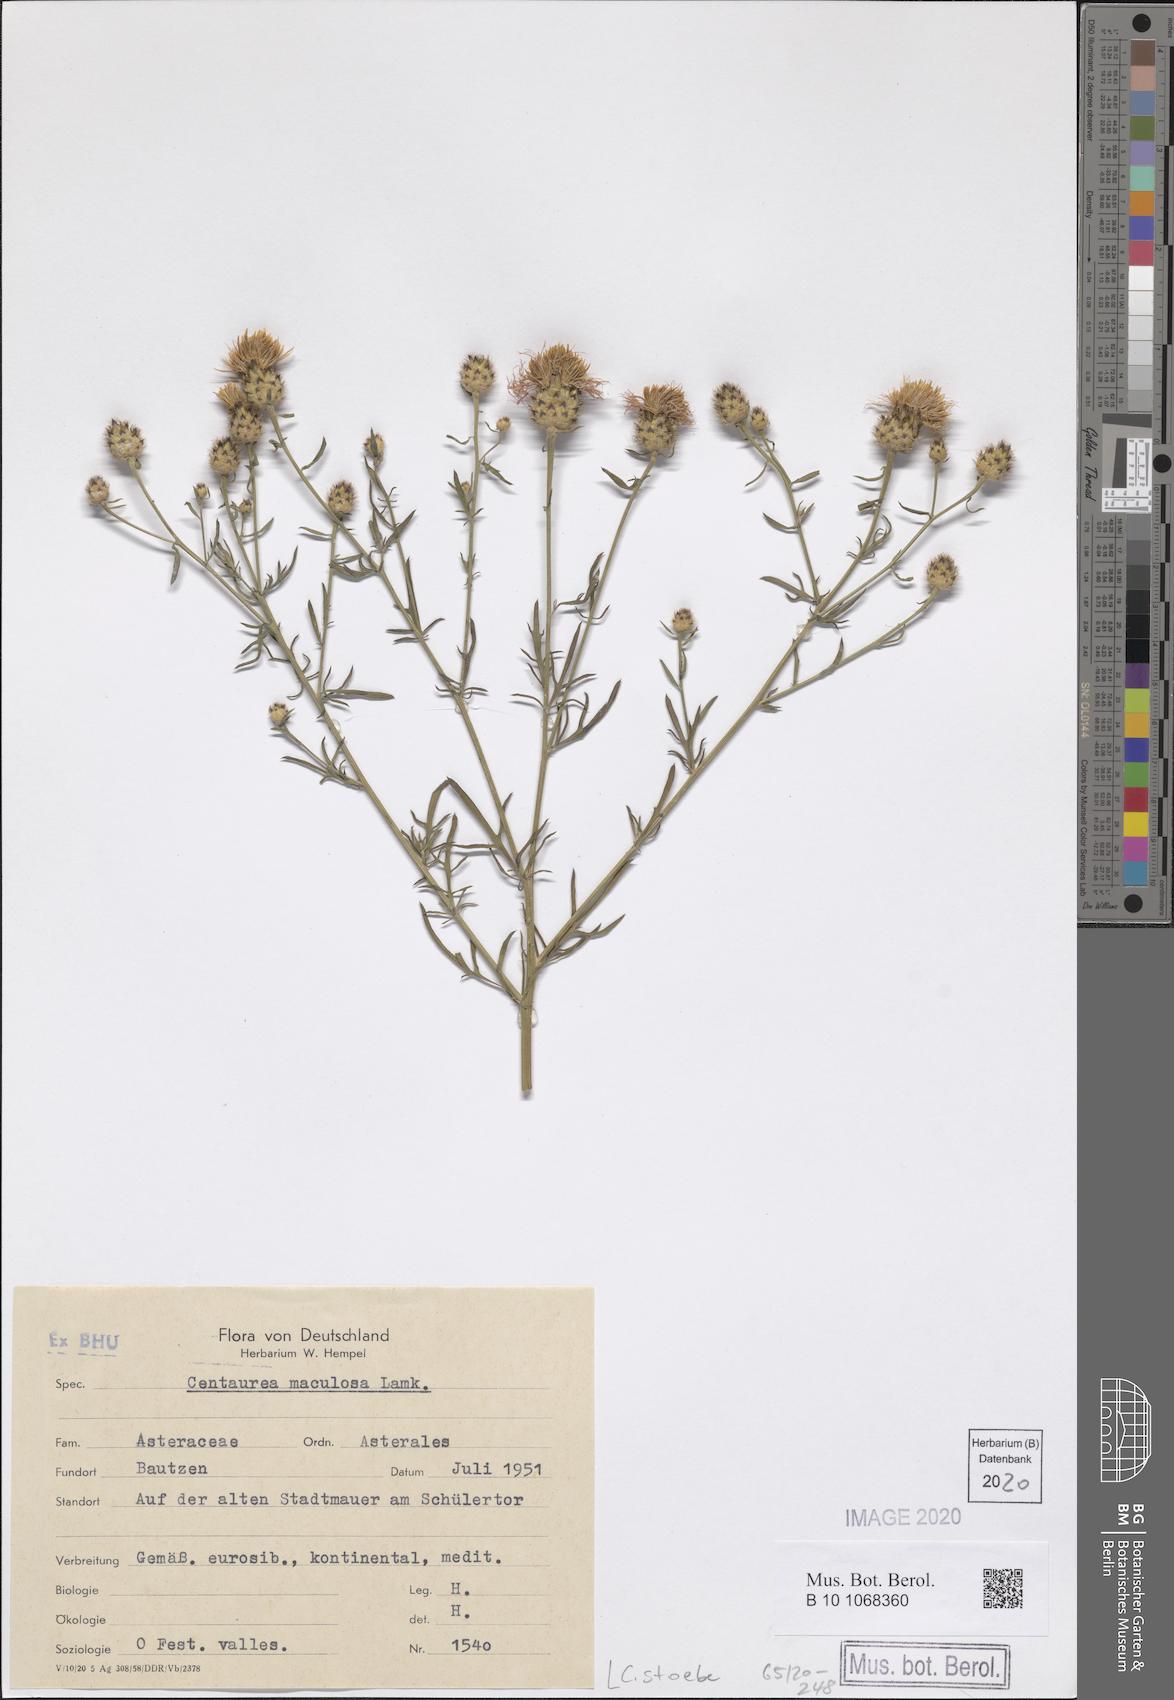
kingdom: Plantae
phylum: Tracheophyta
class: Magnoliopsida
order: Asterales
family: Asteraceae
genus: Centaurea
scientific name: Centaurea stoebe
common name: Spotted knapweed
